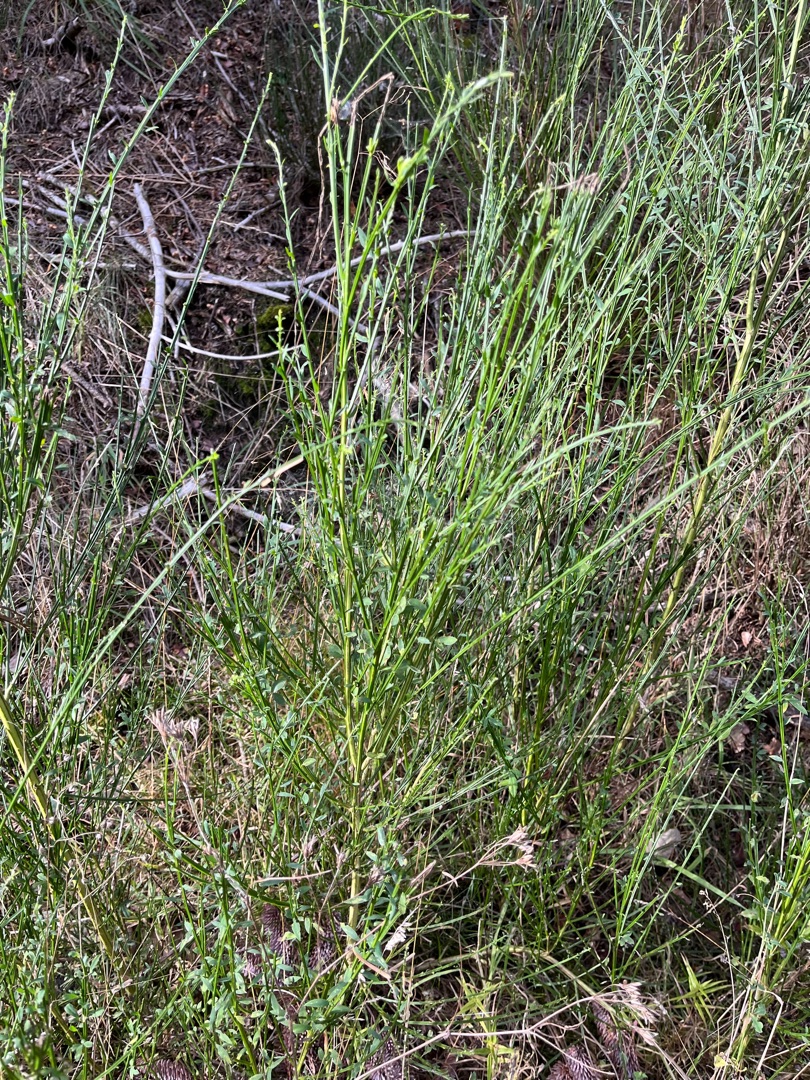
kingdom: Plantae
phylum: Tracheophyta
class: Magnoliopsida
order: Fabales
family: Fabaceae
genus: Cytisus
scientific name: Cytisus scoparius
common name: Almindelig gyvel
